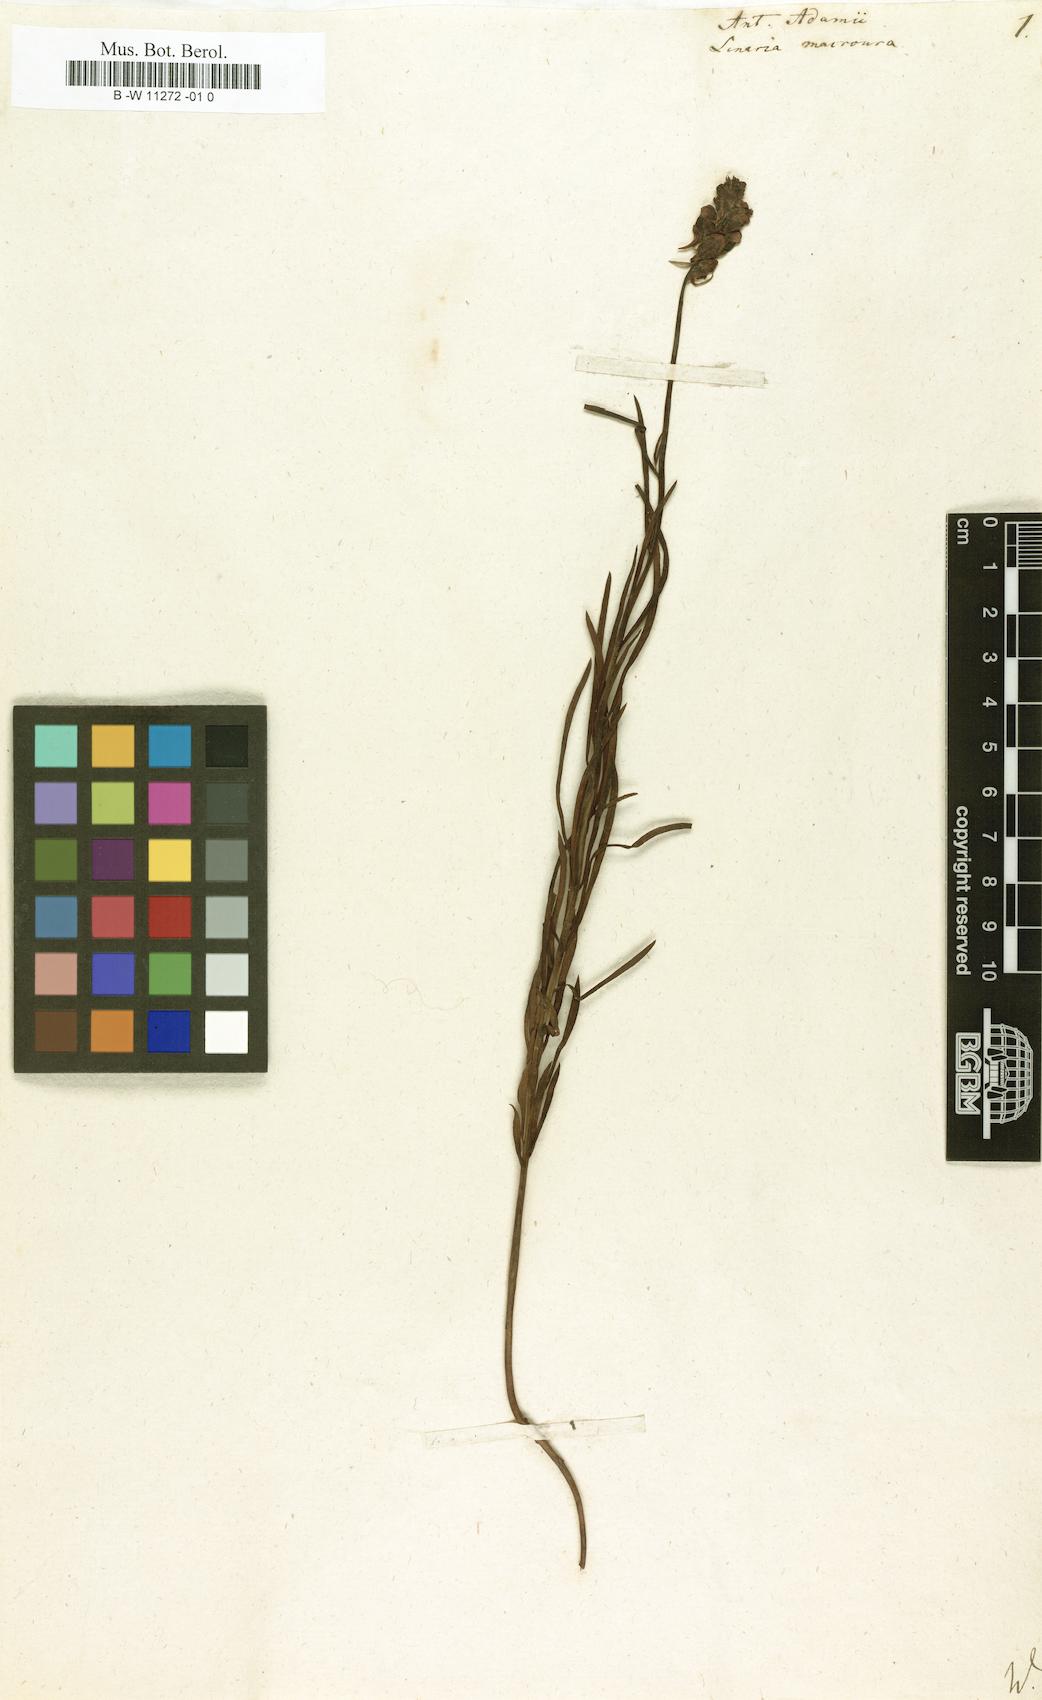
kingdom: Plantae
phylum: Tracheophyta
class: Magnoliopsida
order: Lamiales
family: Plantaginaceae
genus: Linaria
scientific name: Linaria macroura
